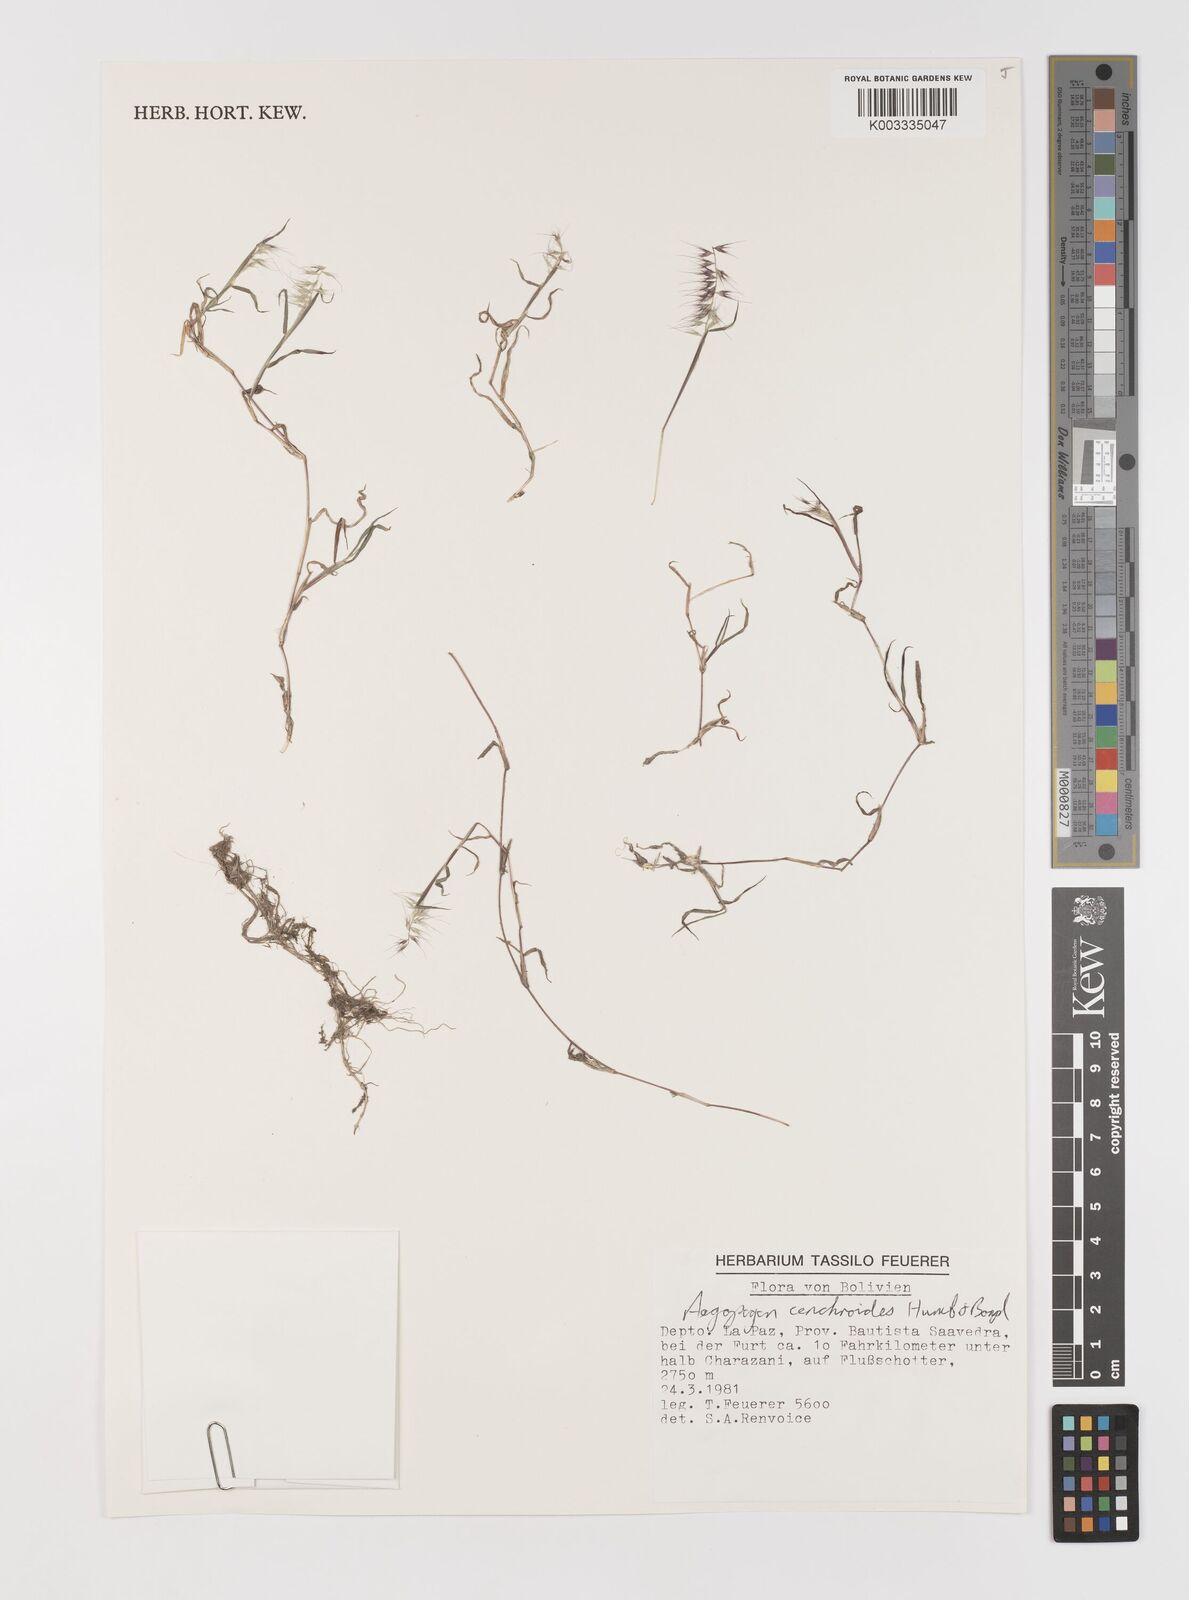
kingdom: Plantae
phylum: Tracheophyta
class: Liliopsida
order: Poales
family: Poaceae
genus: Muhlenbergia
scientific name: Muhlenbergia cenchroides
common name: Relaxgrass
